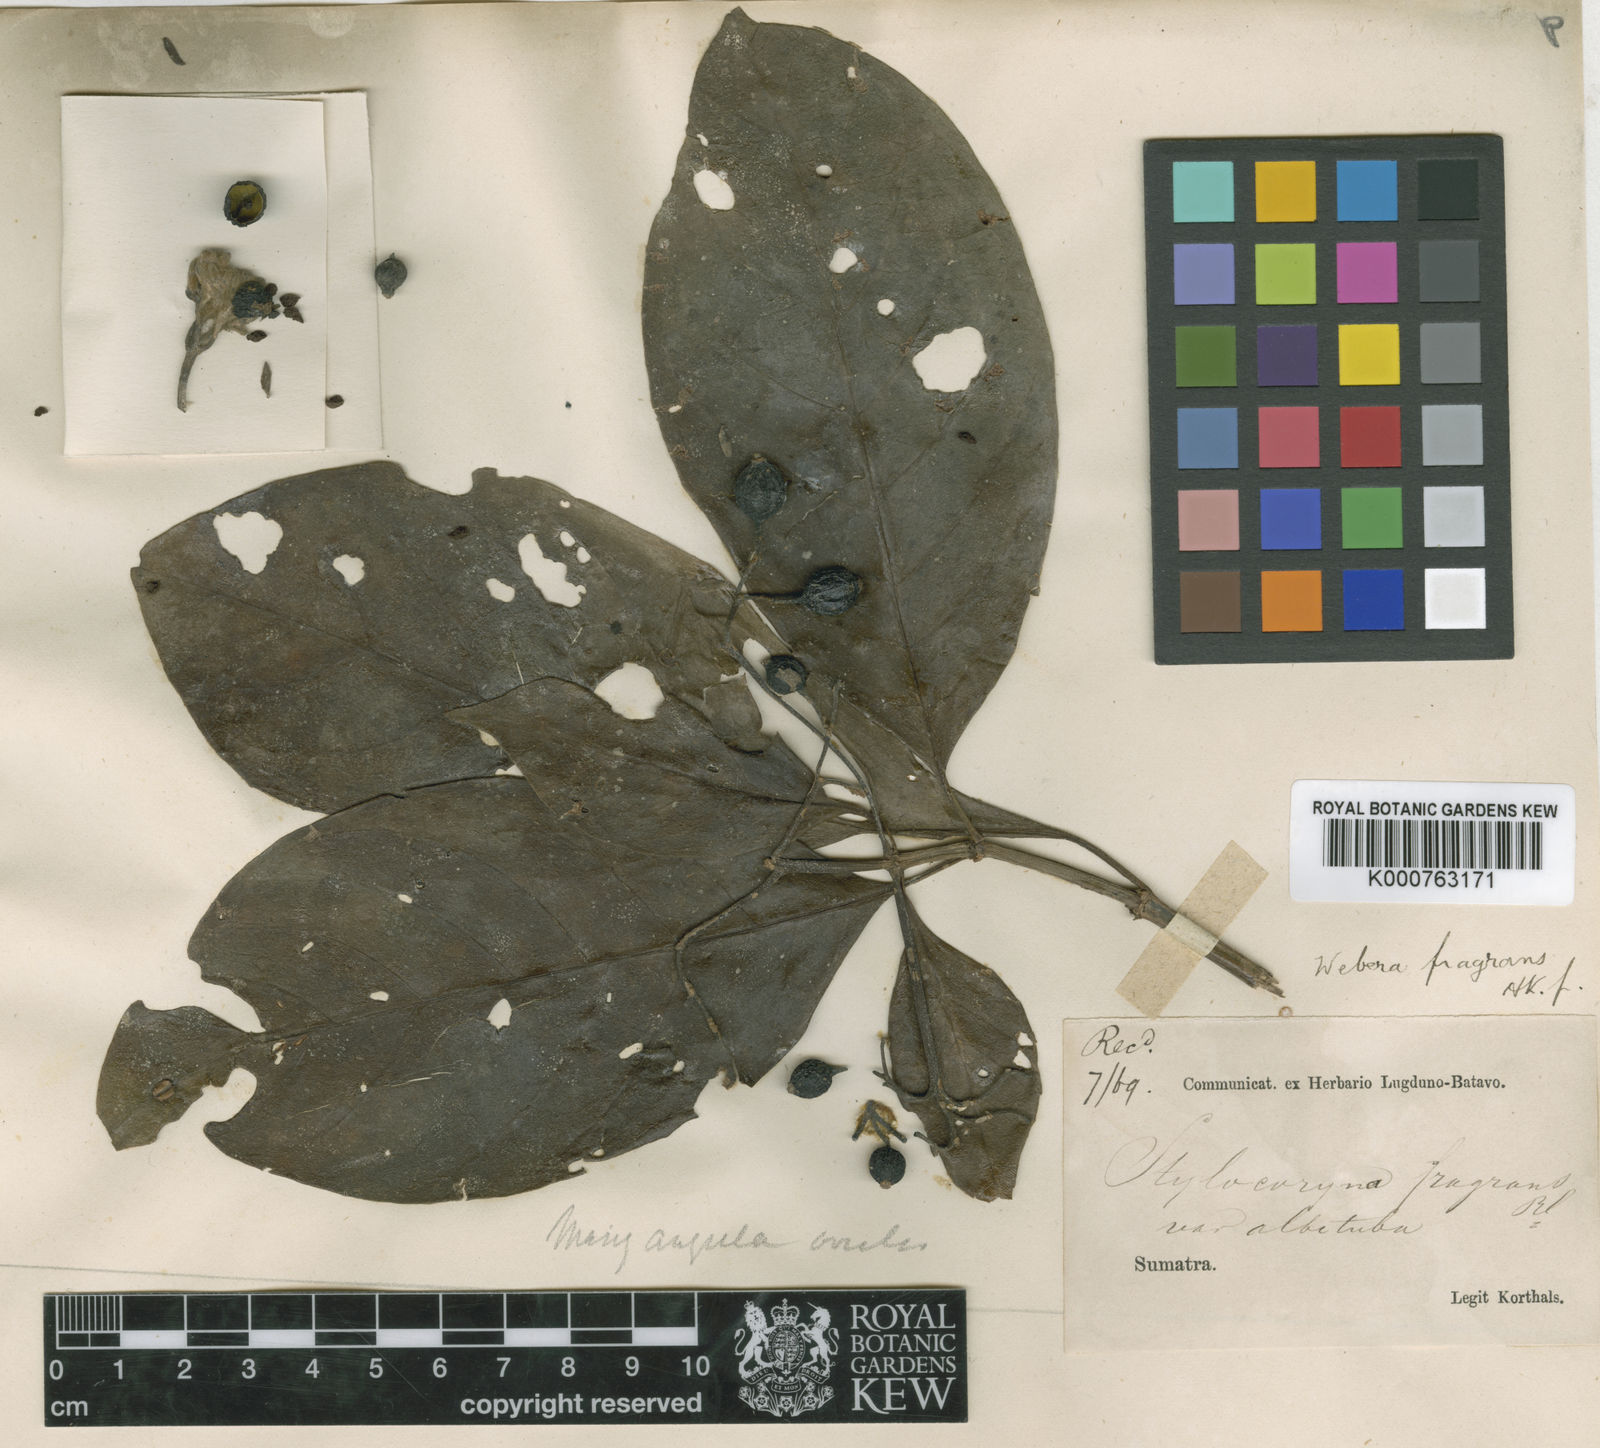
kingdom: Plantae
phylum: Tracheophyta
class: Magnoliopsida
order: Gentianales
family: Rubiaceae
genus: Tarenna
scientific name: Tarenna sumatrensis
